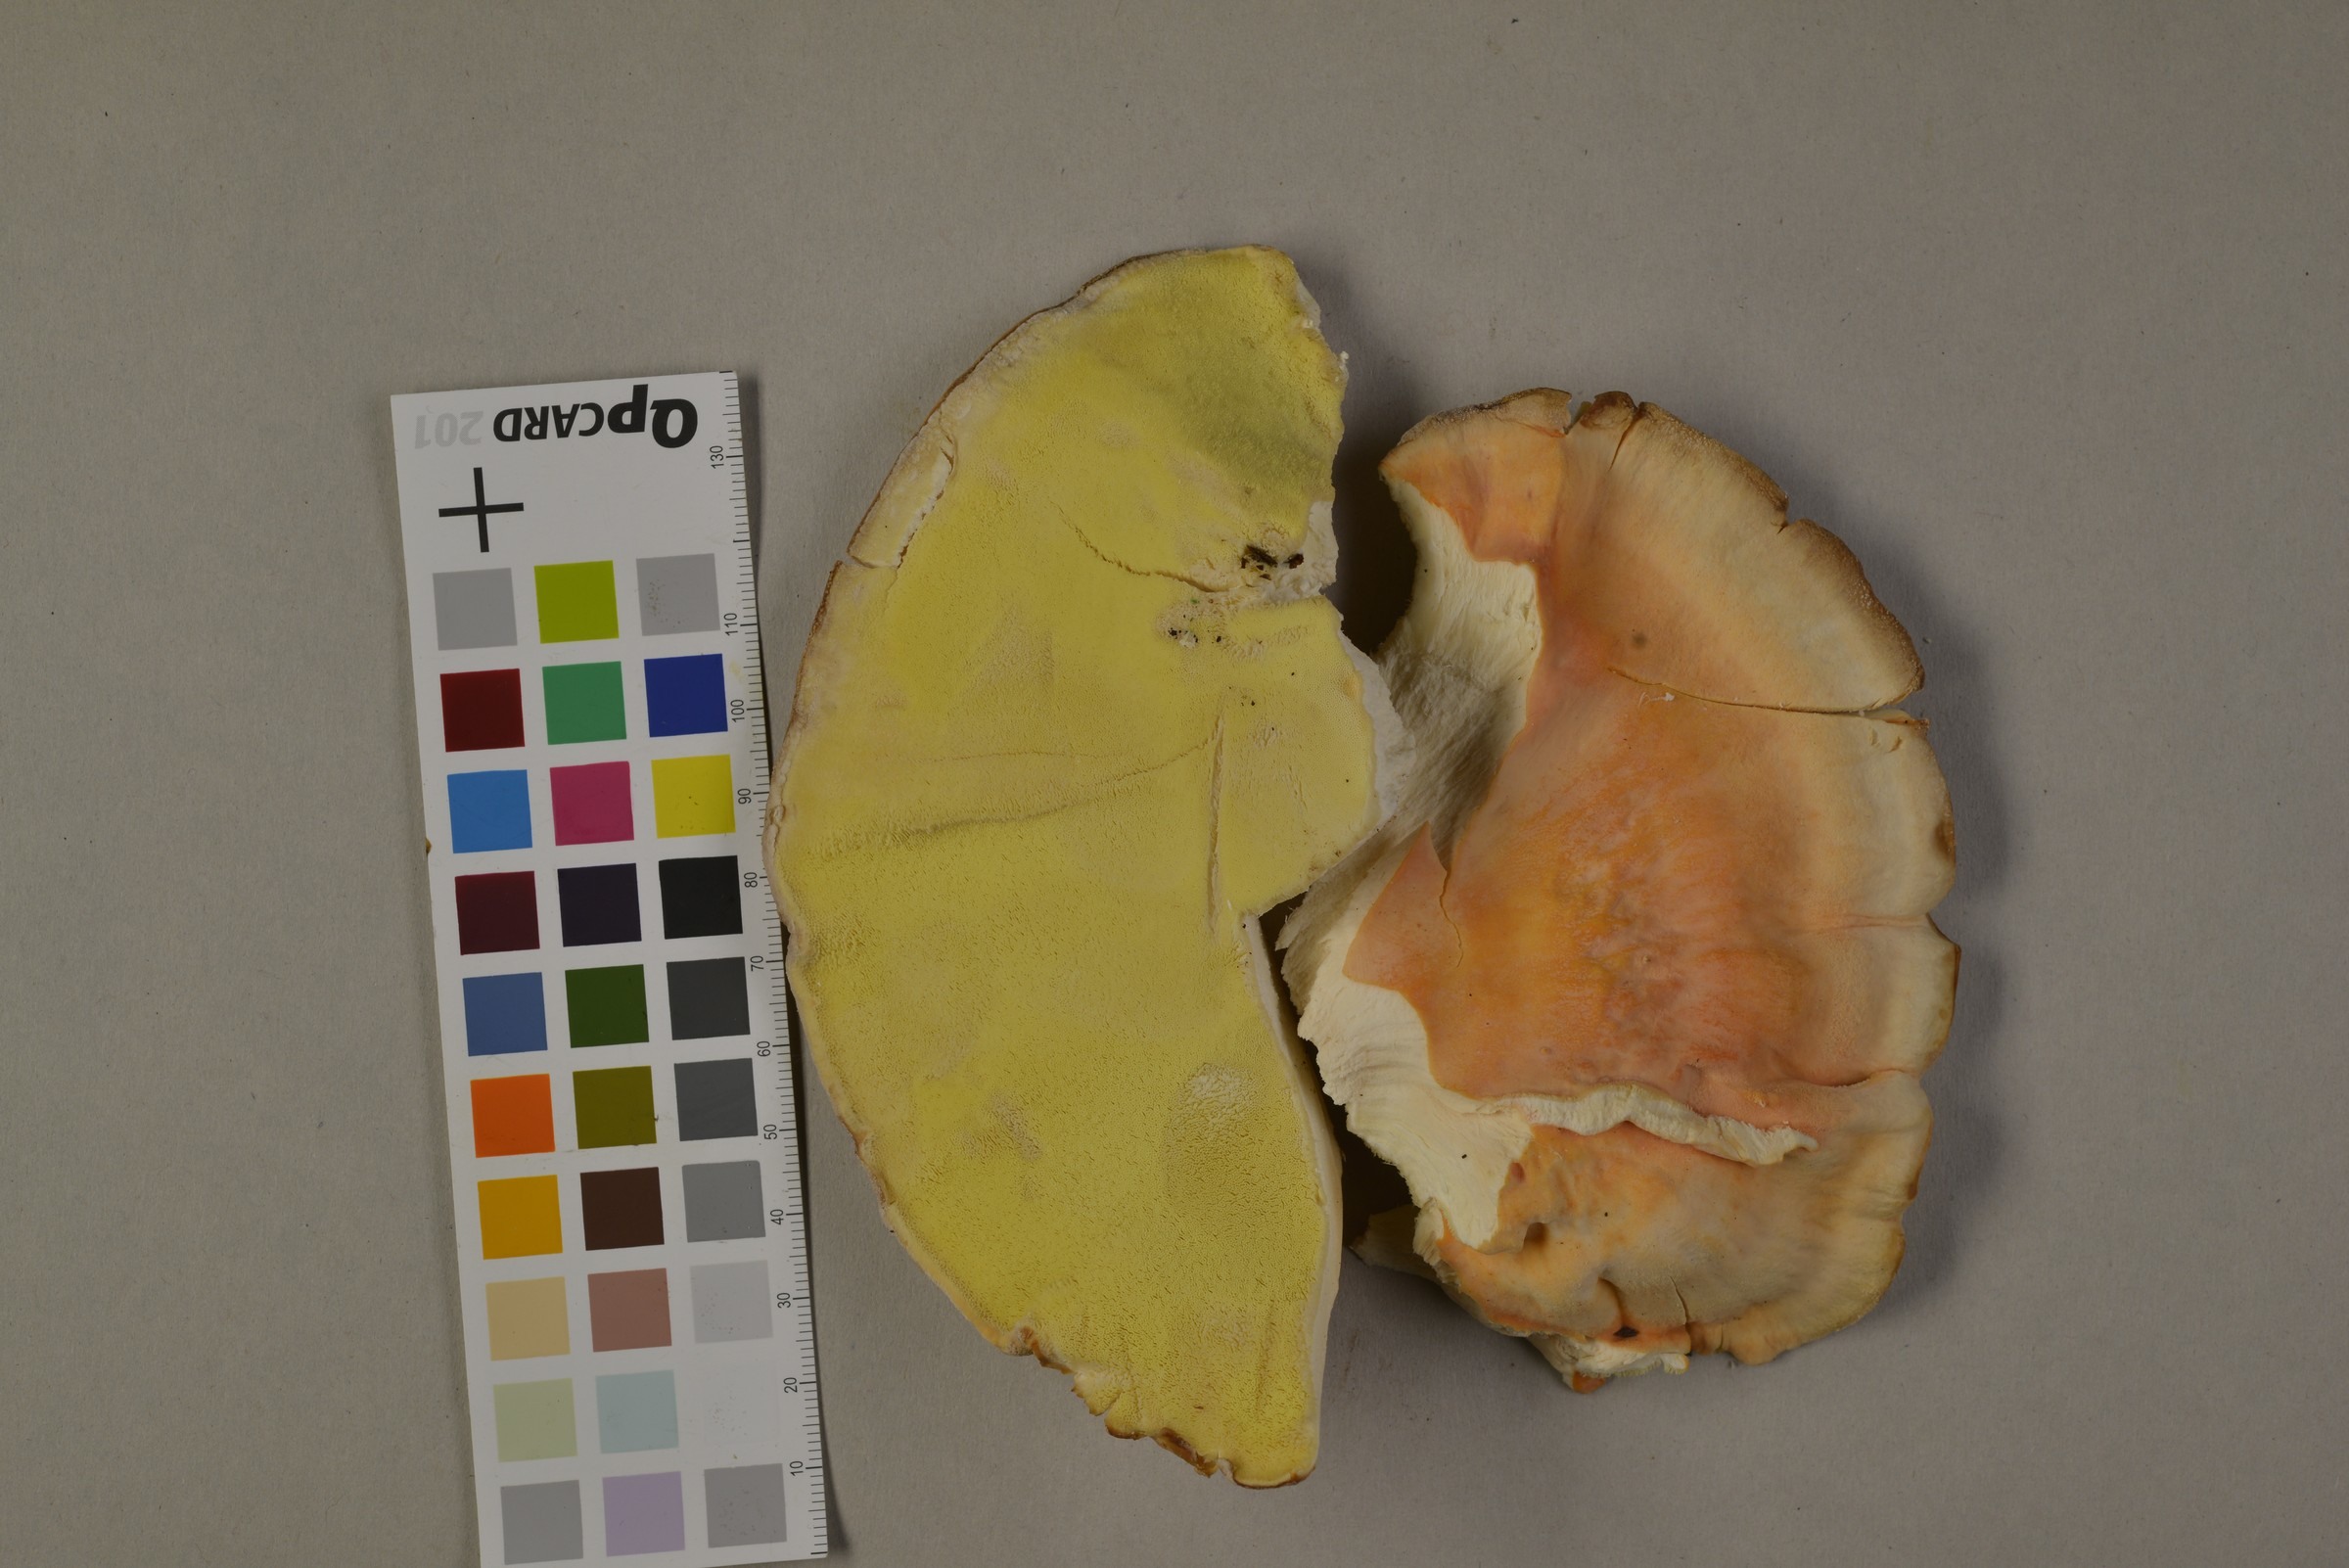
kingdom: Fungi
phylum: Basidiomycota
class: Agaricomycetes
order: Polyporales
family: Laetiporaceae
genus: Laetiporus
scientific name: Laetiporus sulphureus
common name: Chicken of the woods
